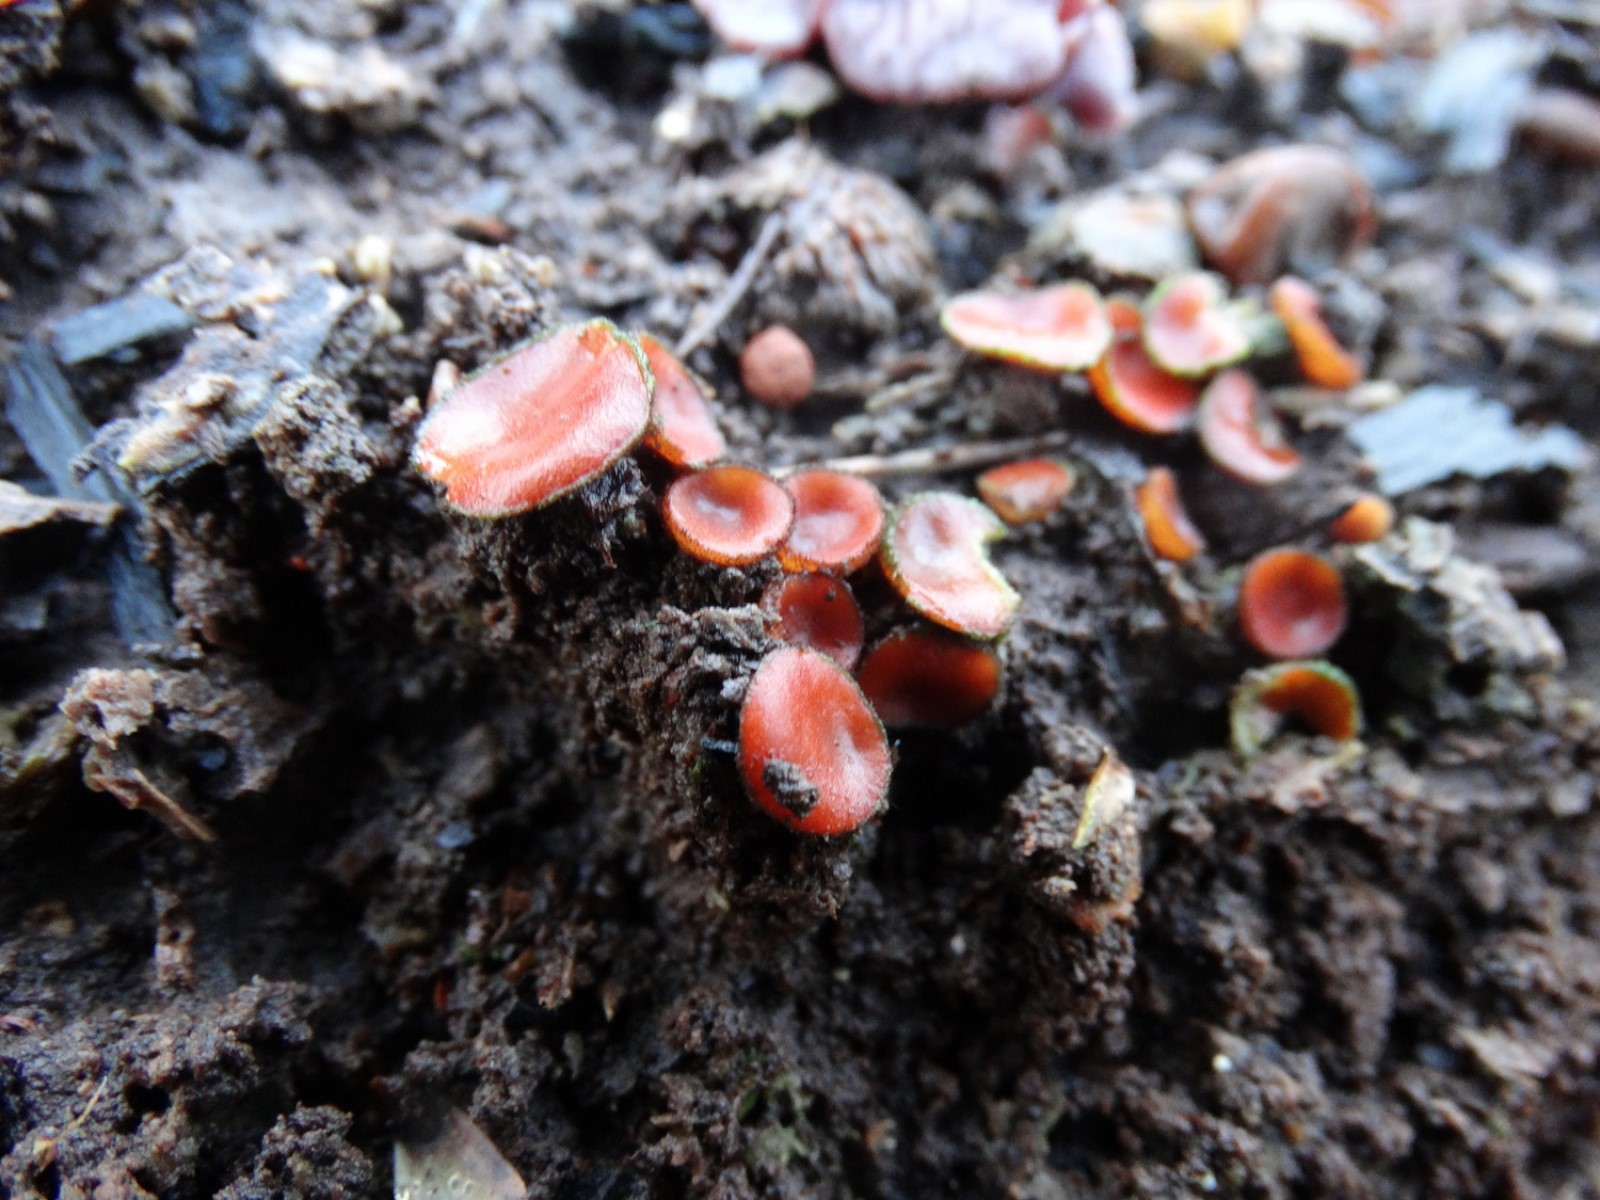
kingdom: Fungi
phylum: Ascomycota
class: Pezizomycetes
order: Pezizales
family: Pyronemataceae
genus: Scutellinia
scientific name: Scutellinia
